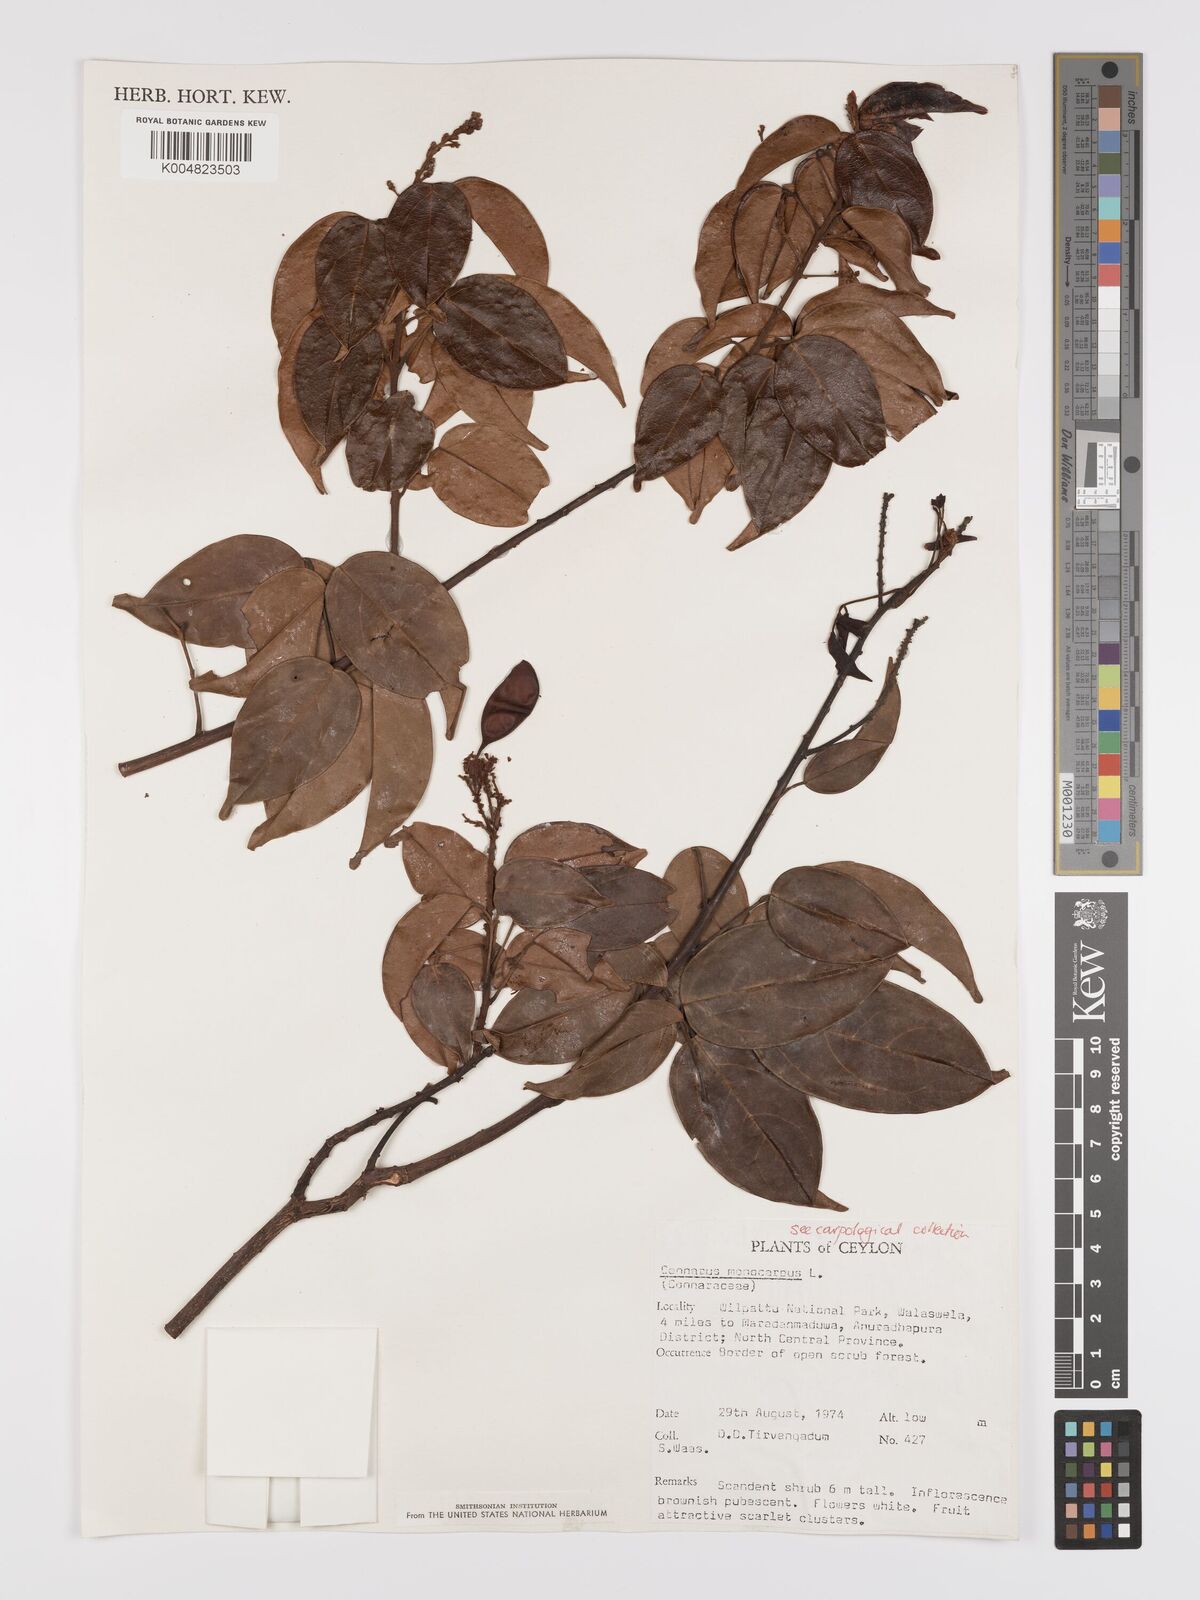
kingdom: Plantae
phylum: Tracheophyta
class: Magnoliopsida
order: Oxalidales
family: Connaraceae
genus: Connarus
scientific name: Connarus semidecandrus
